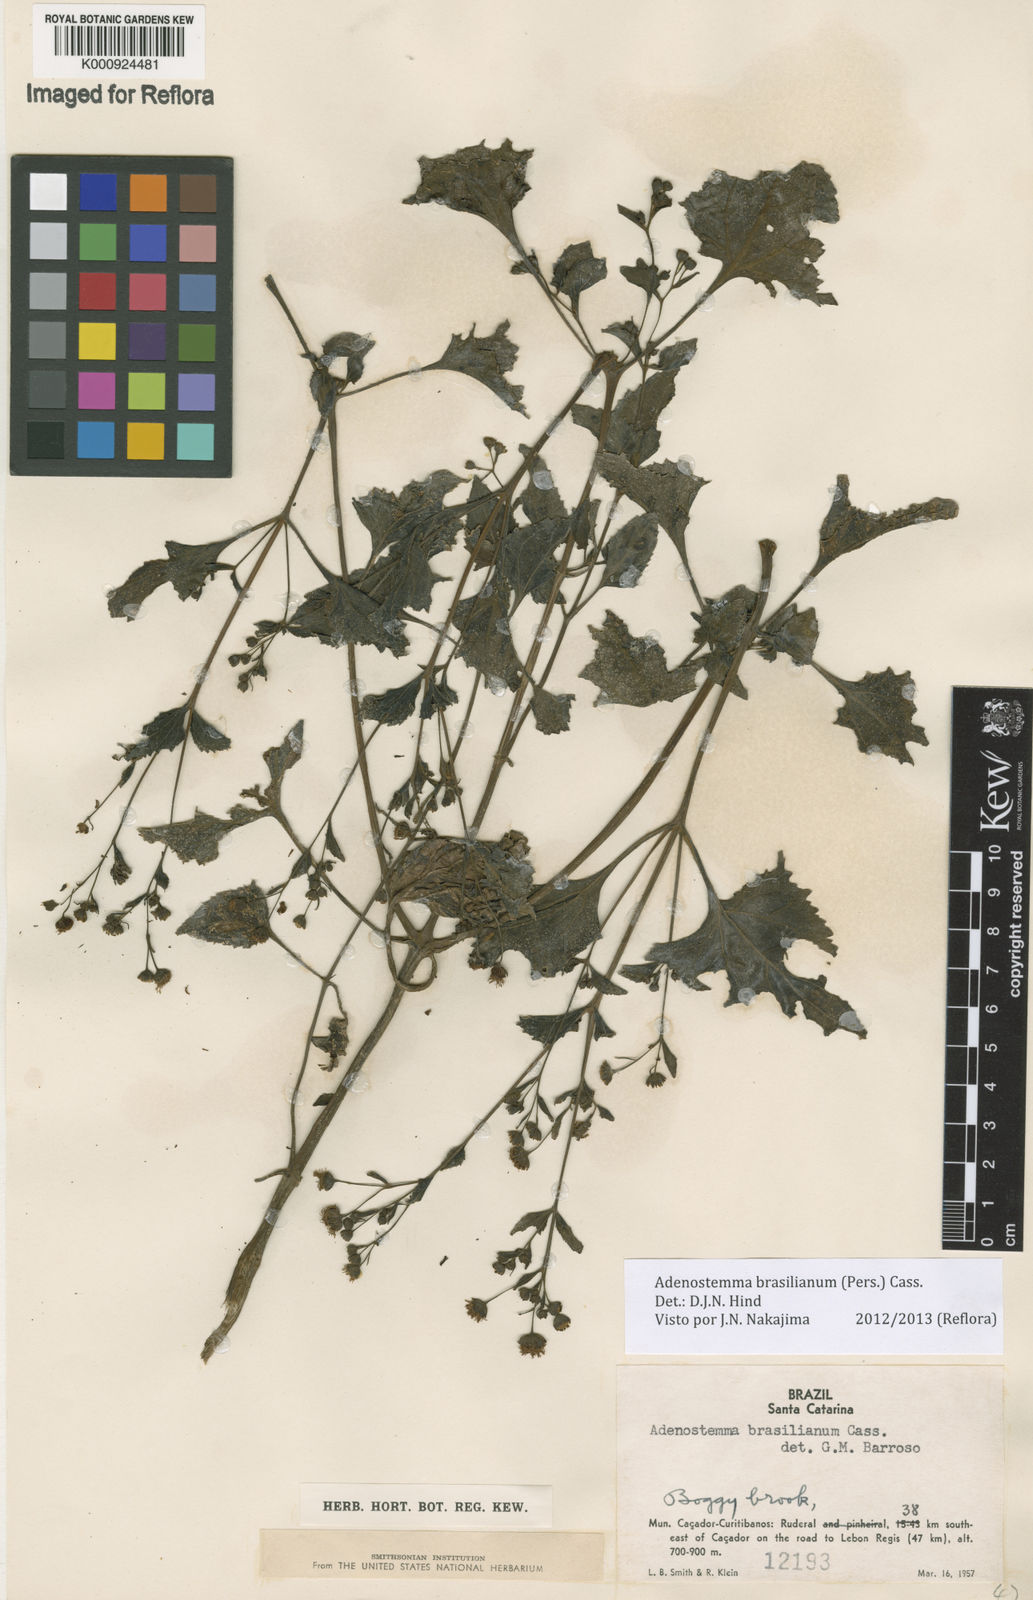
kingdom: Plantae
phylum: Tracheophyta
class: Magnoliopsida
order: Asterales
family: Asteraceae
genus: Adenostemma
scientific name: Adenostemma brasilianum
